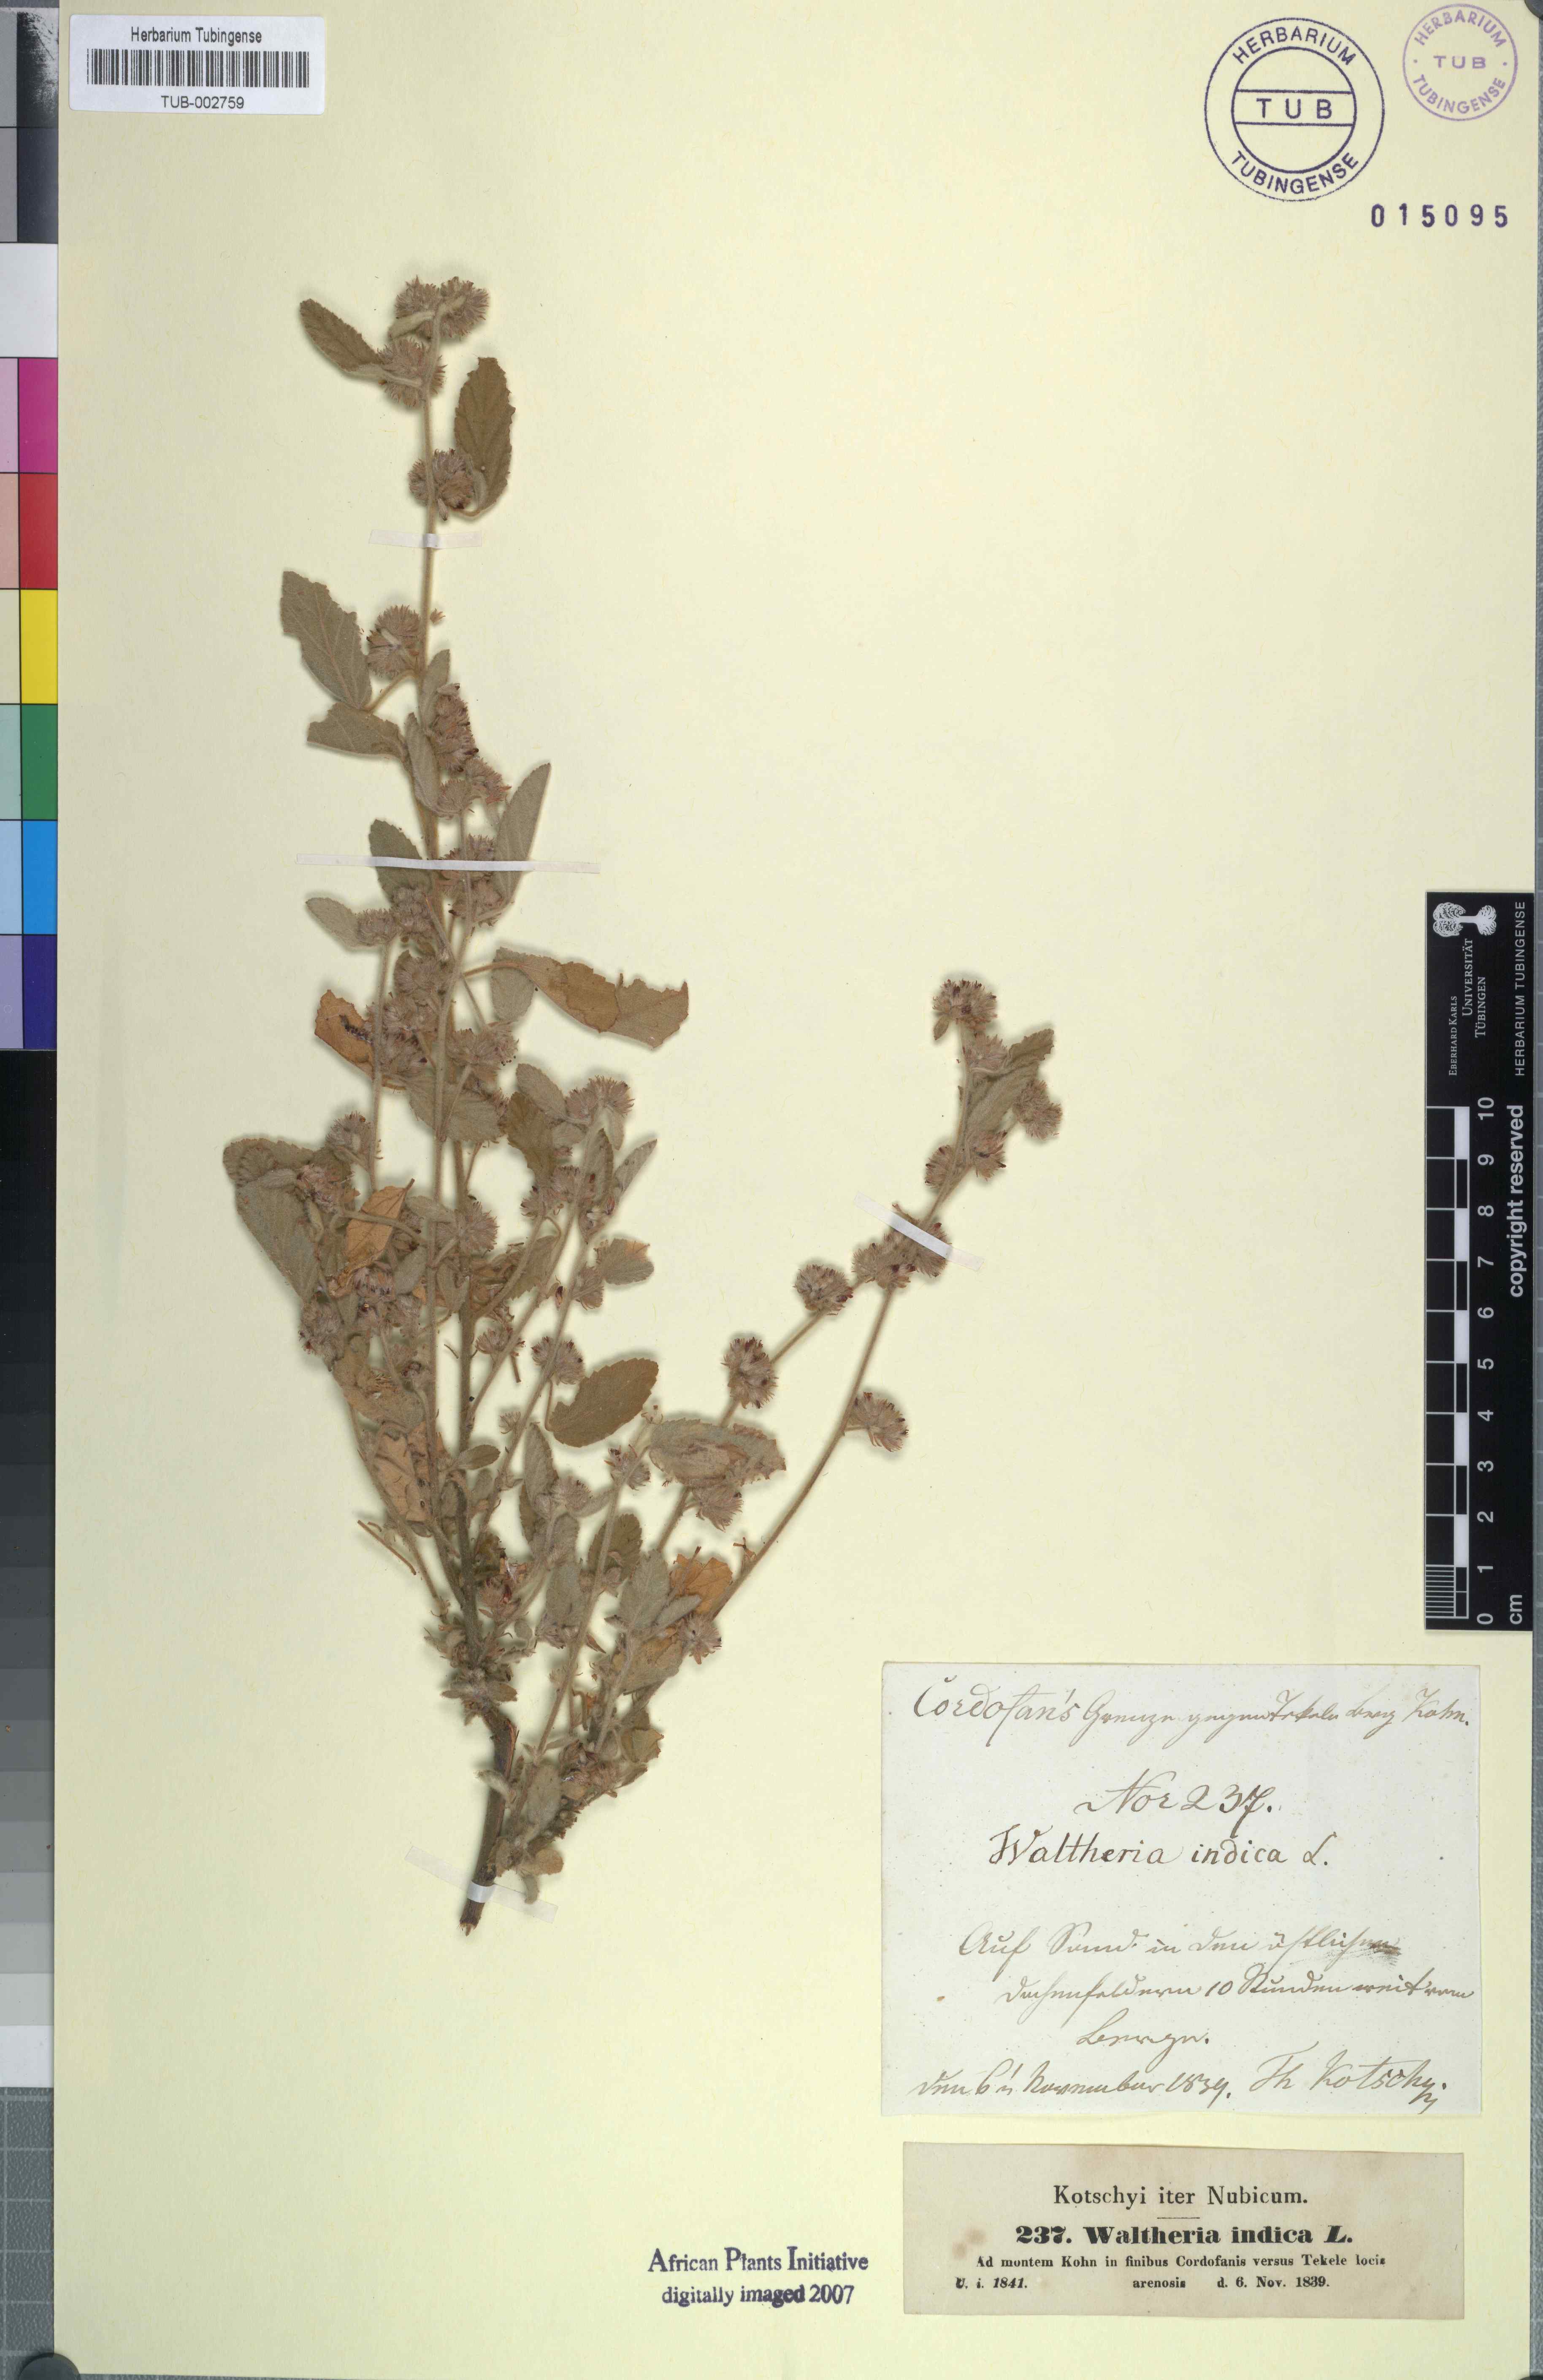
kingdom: Plantae
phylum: Tracheophyta
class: Magnoliopsida
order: Malvales
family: Malvaceae
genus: Waltheria
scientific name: Waltheria indica
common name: Leather-coat
